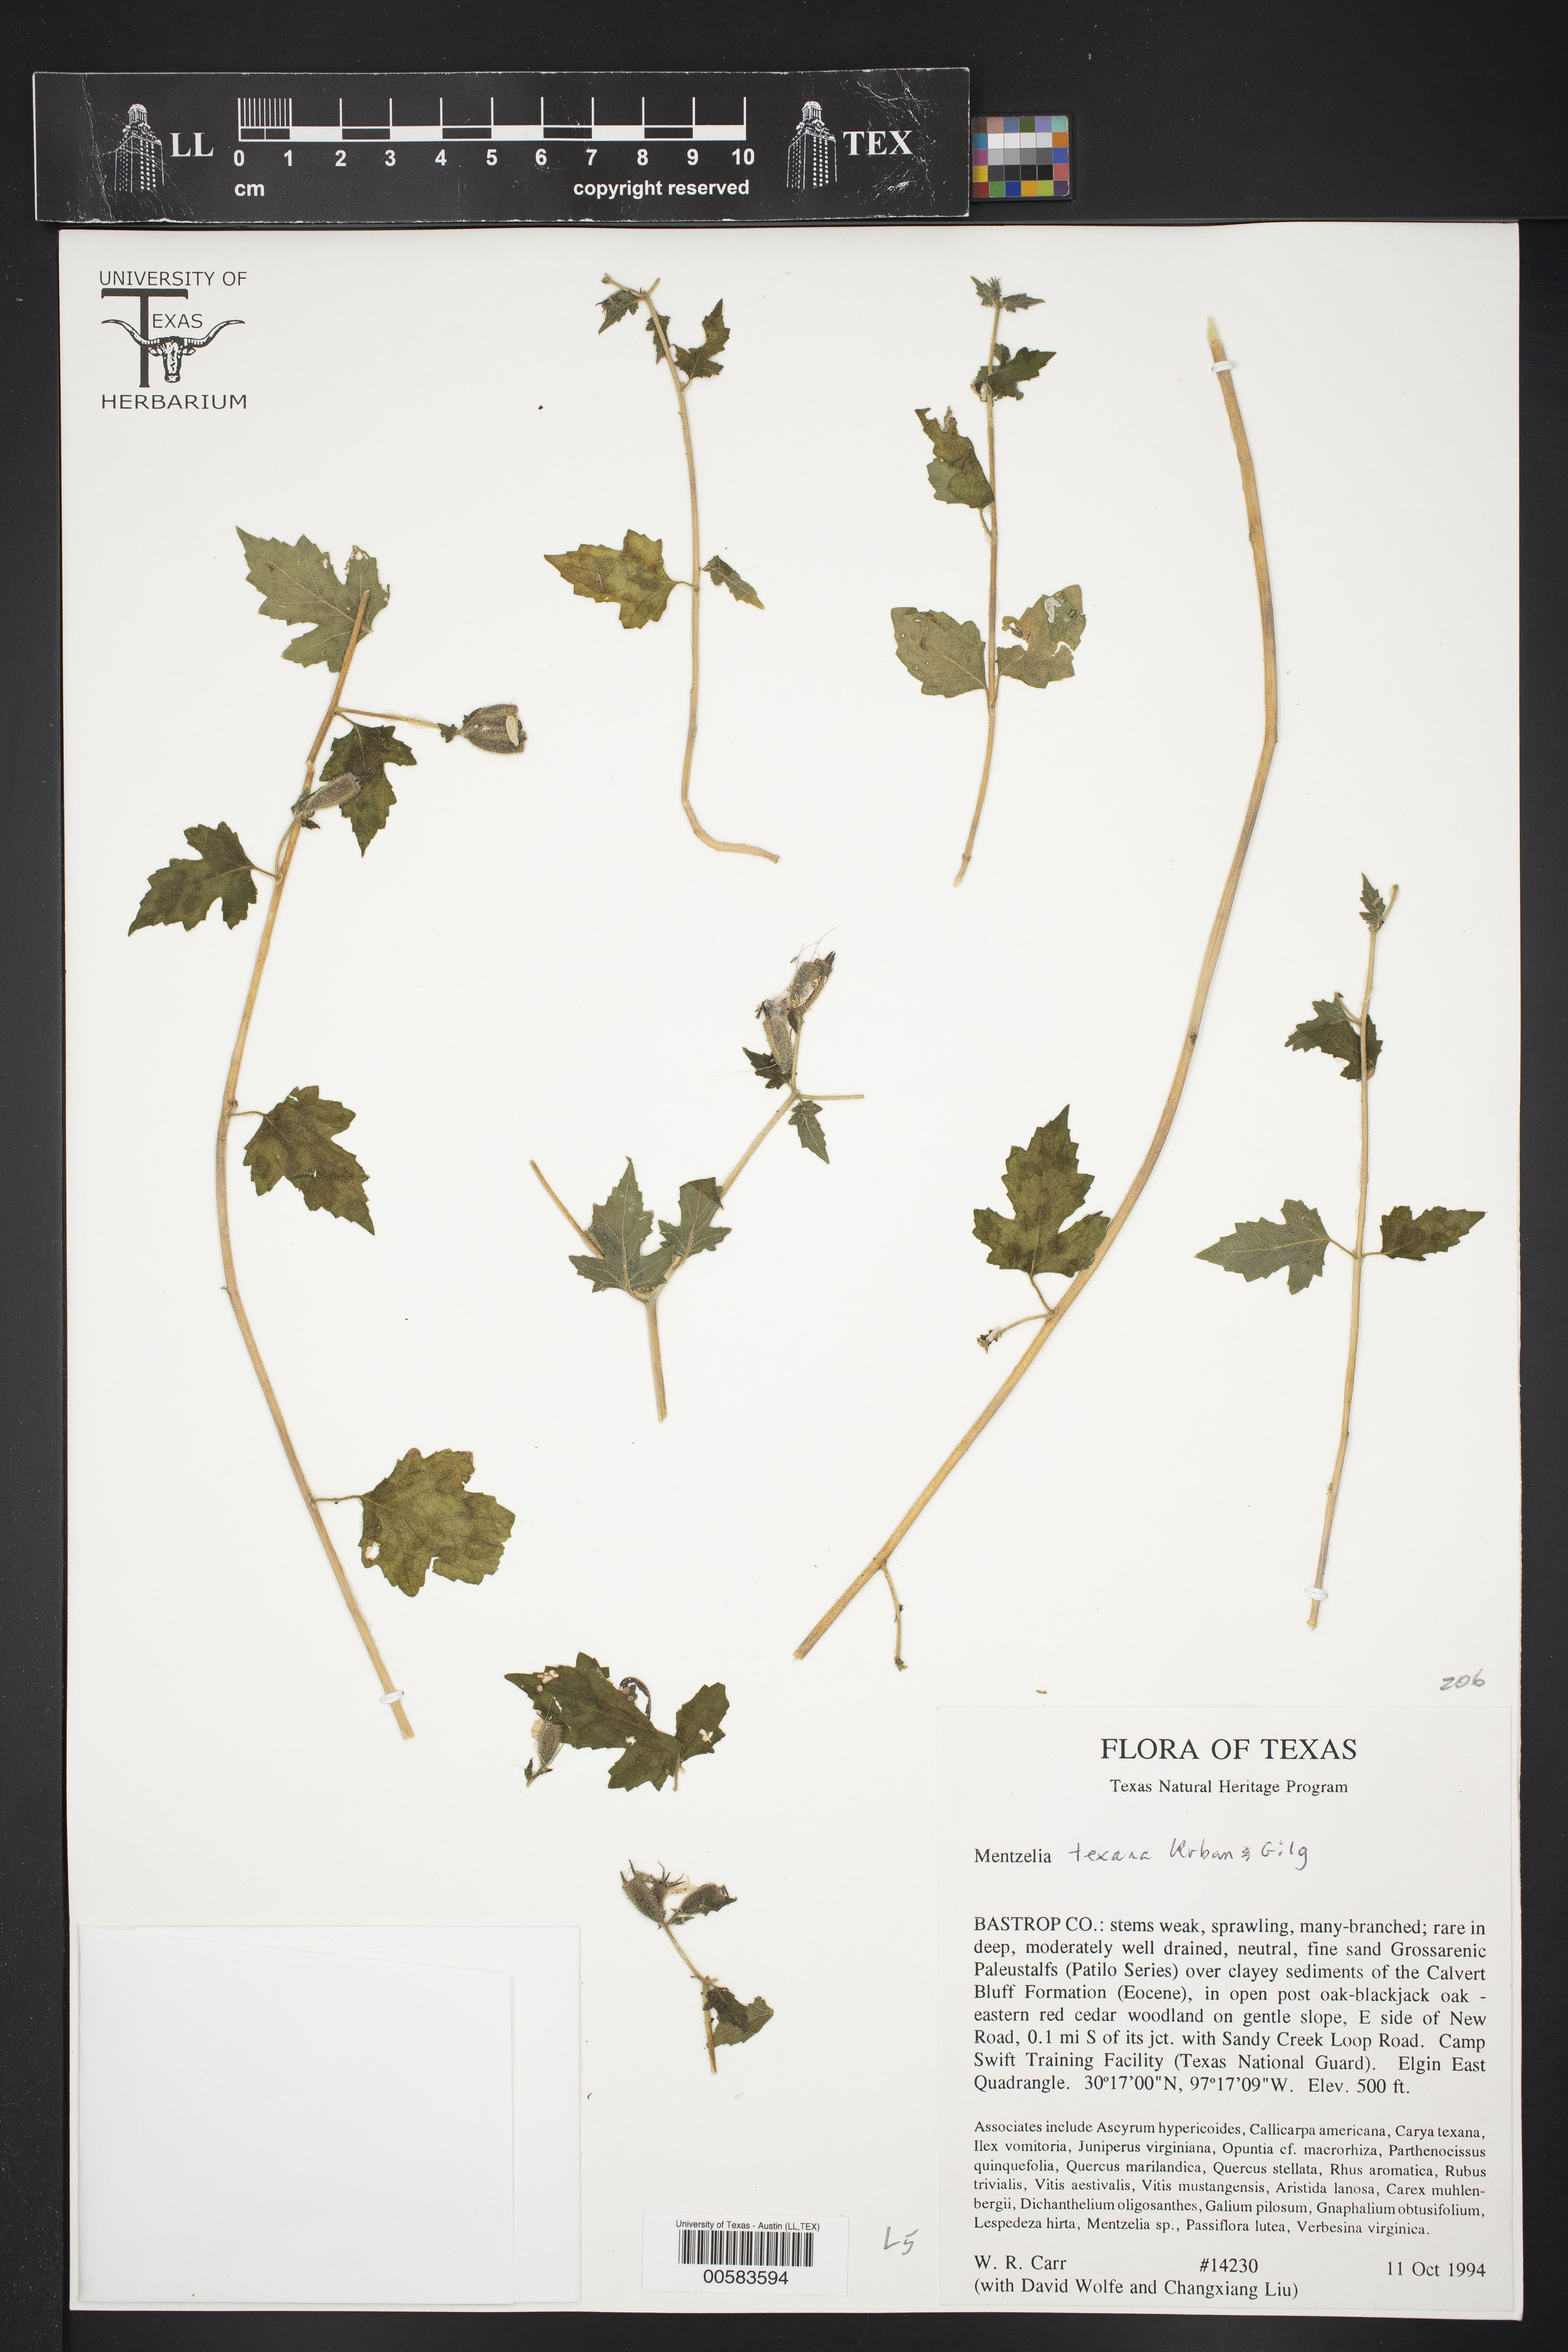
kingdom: Plantae
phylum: Tracheophyta
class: Magnoliopsida
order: Cornales
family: Loasaceae
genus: Mentzelia
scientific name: Mentzelia texana
